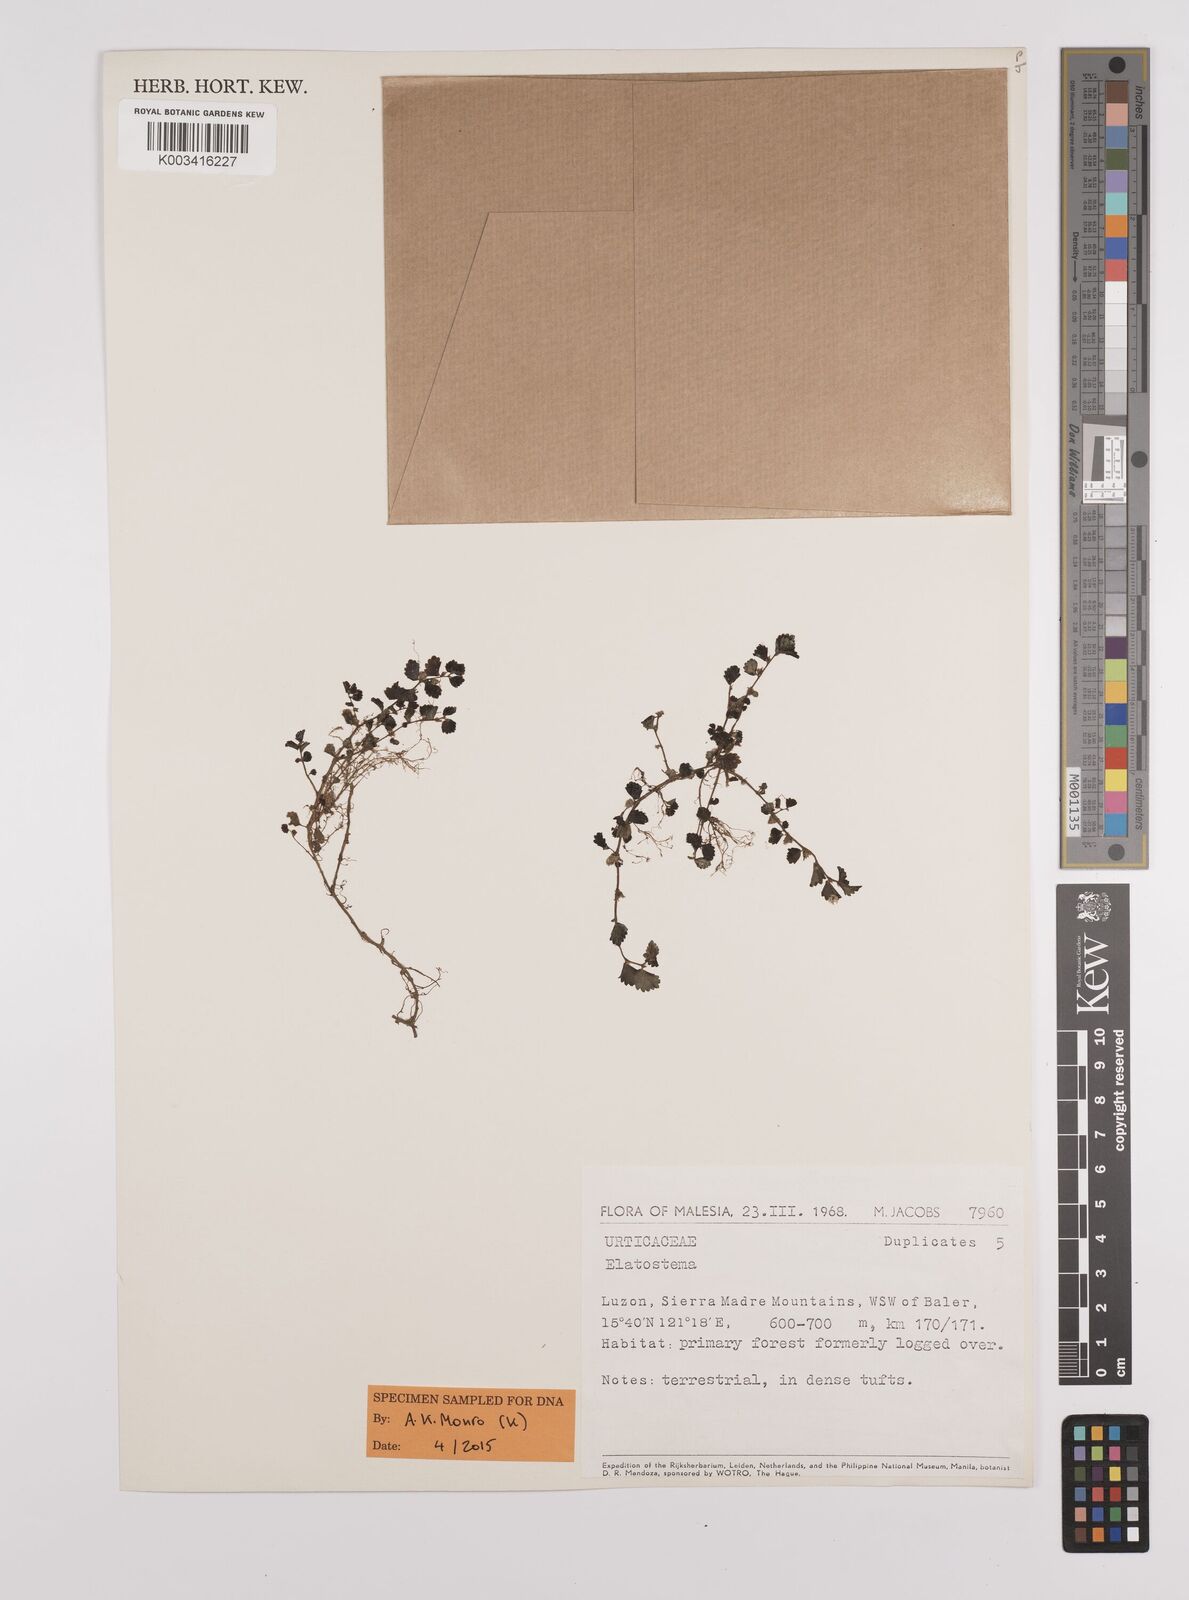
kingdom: Plantae
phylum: Tracheophyta
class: Magnoliopsida
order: Rosales
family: Urticaceae
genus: Elatostema
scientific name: Elatostema
